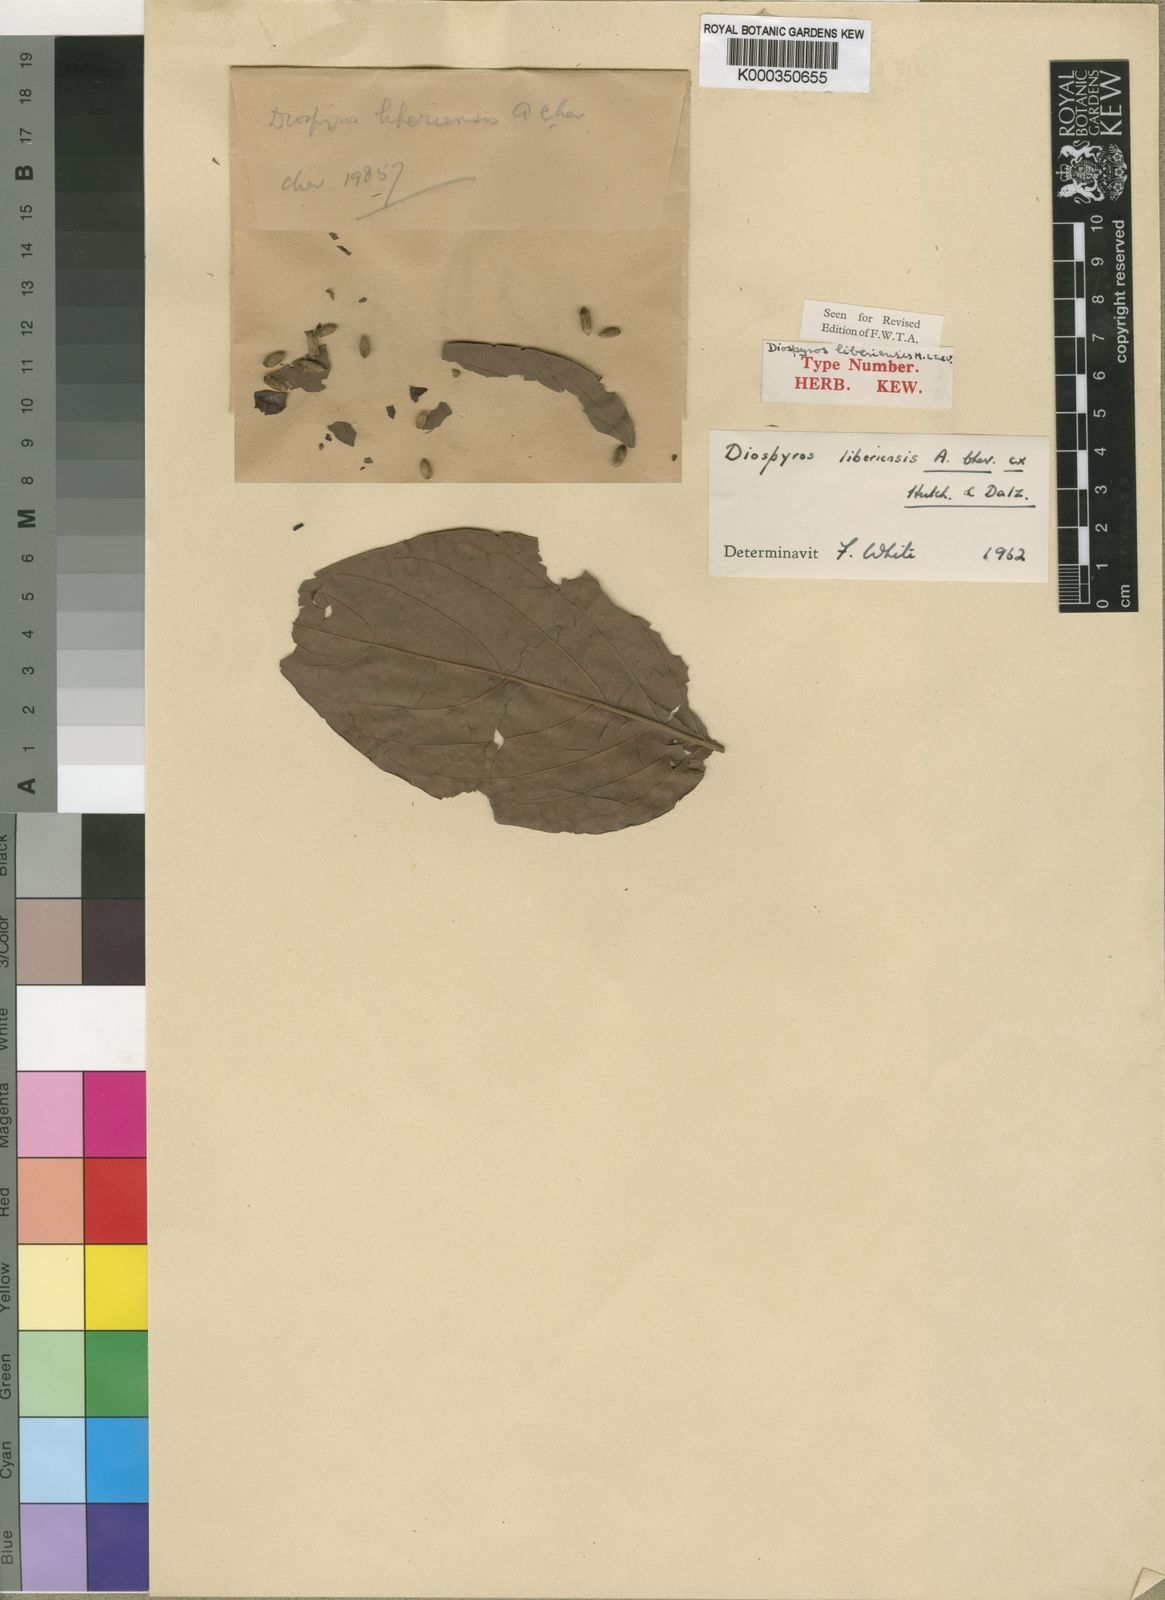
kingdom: Plantae
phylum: Tracheophyta
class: Magnoliopsida
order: Ericales
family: Ebenaceae
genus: Diospyros
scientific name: Diospyros mannii
